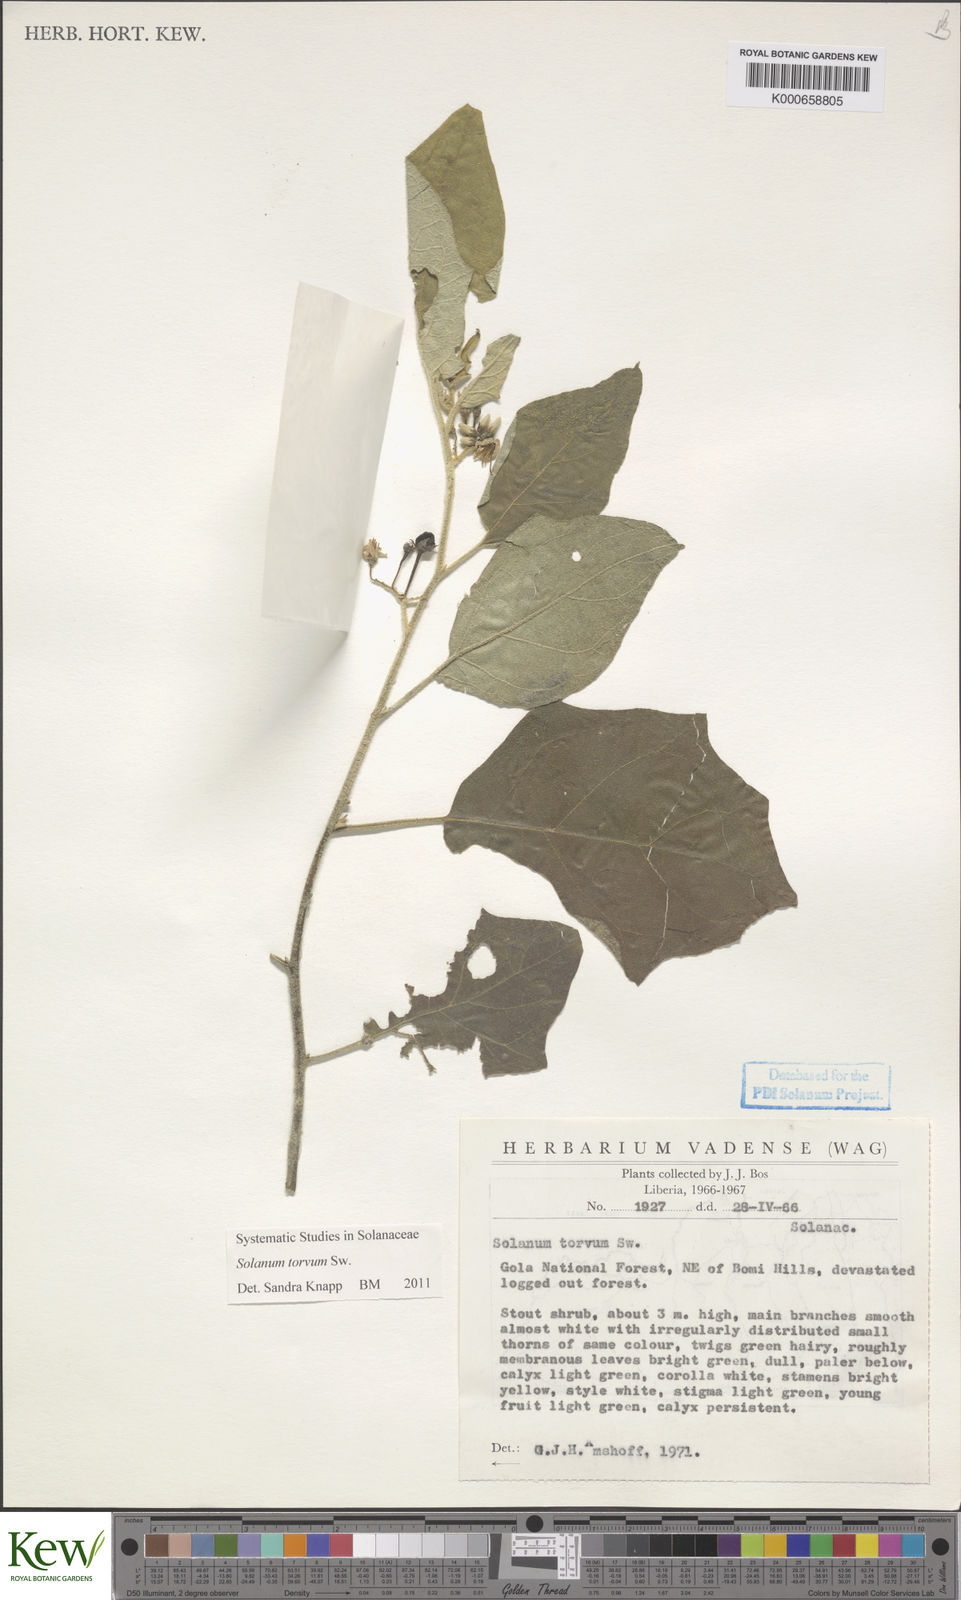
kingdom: Plantae
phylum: Tracheophyta
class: Magnoliopsida
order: Solanales
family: Solanaceae
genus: Solanum
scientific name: Solanum torvum
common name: Turkey berry
